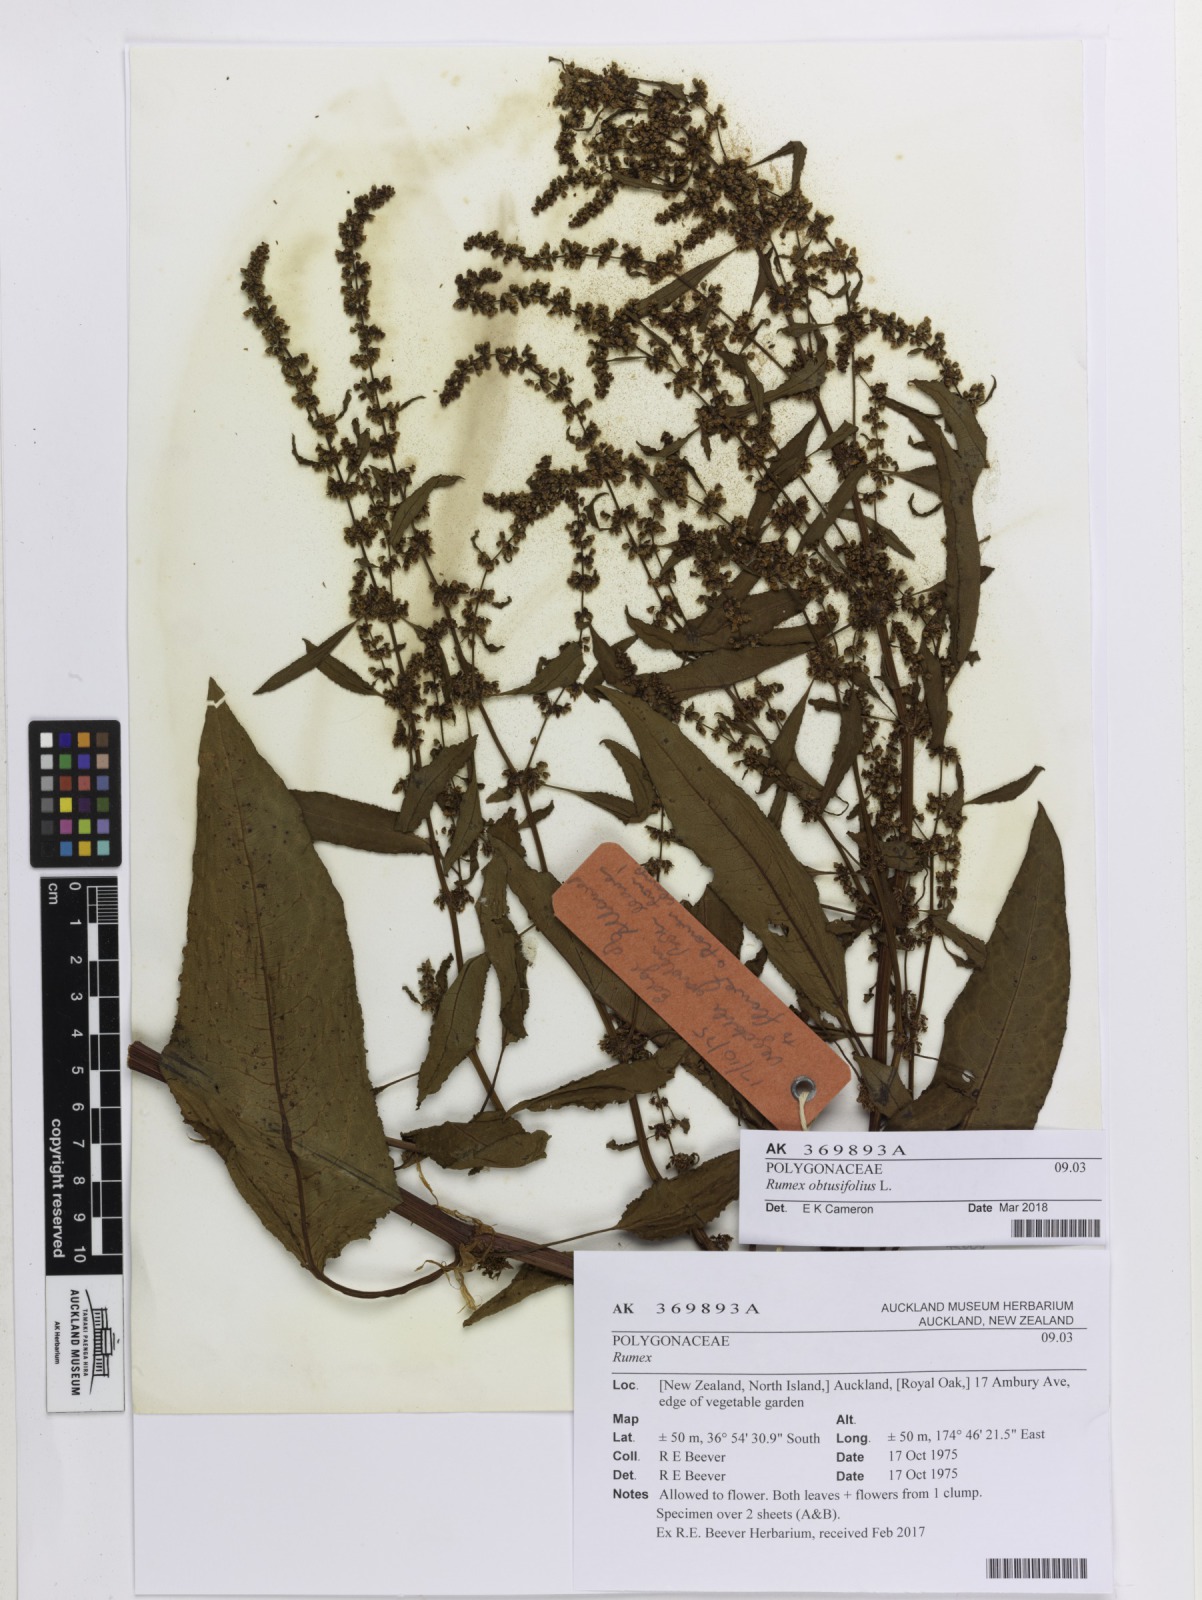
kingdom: Plantae
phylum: Tracheophyta
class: Magnoliopsida
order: Caryophyllales
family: Polygonaceae
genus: Rumex
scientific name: Rumex obtusifolius
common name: Bitter dock
